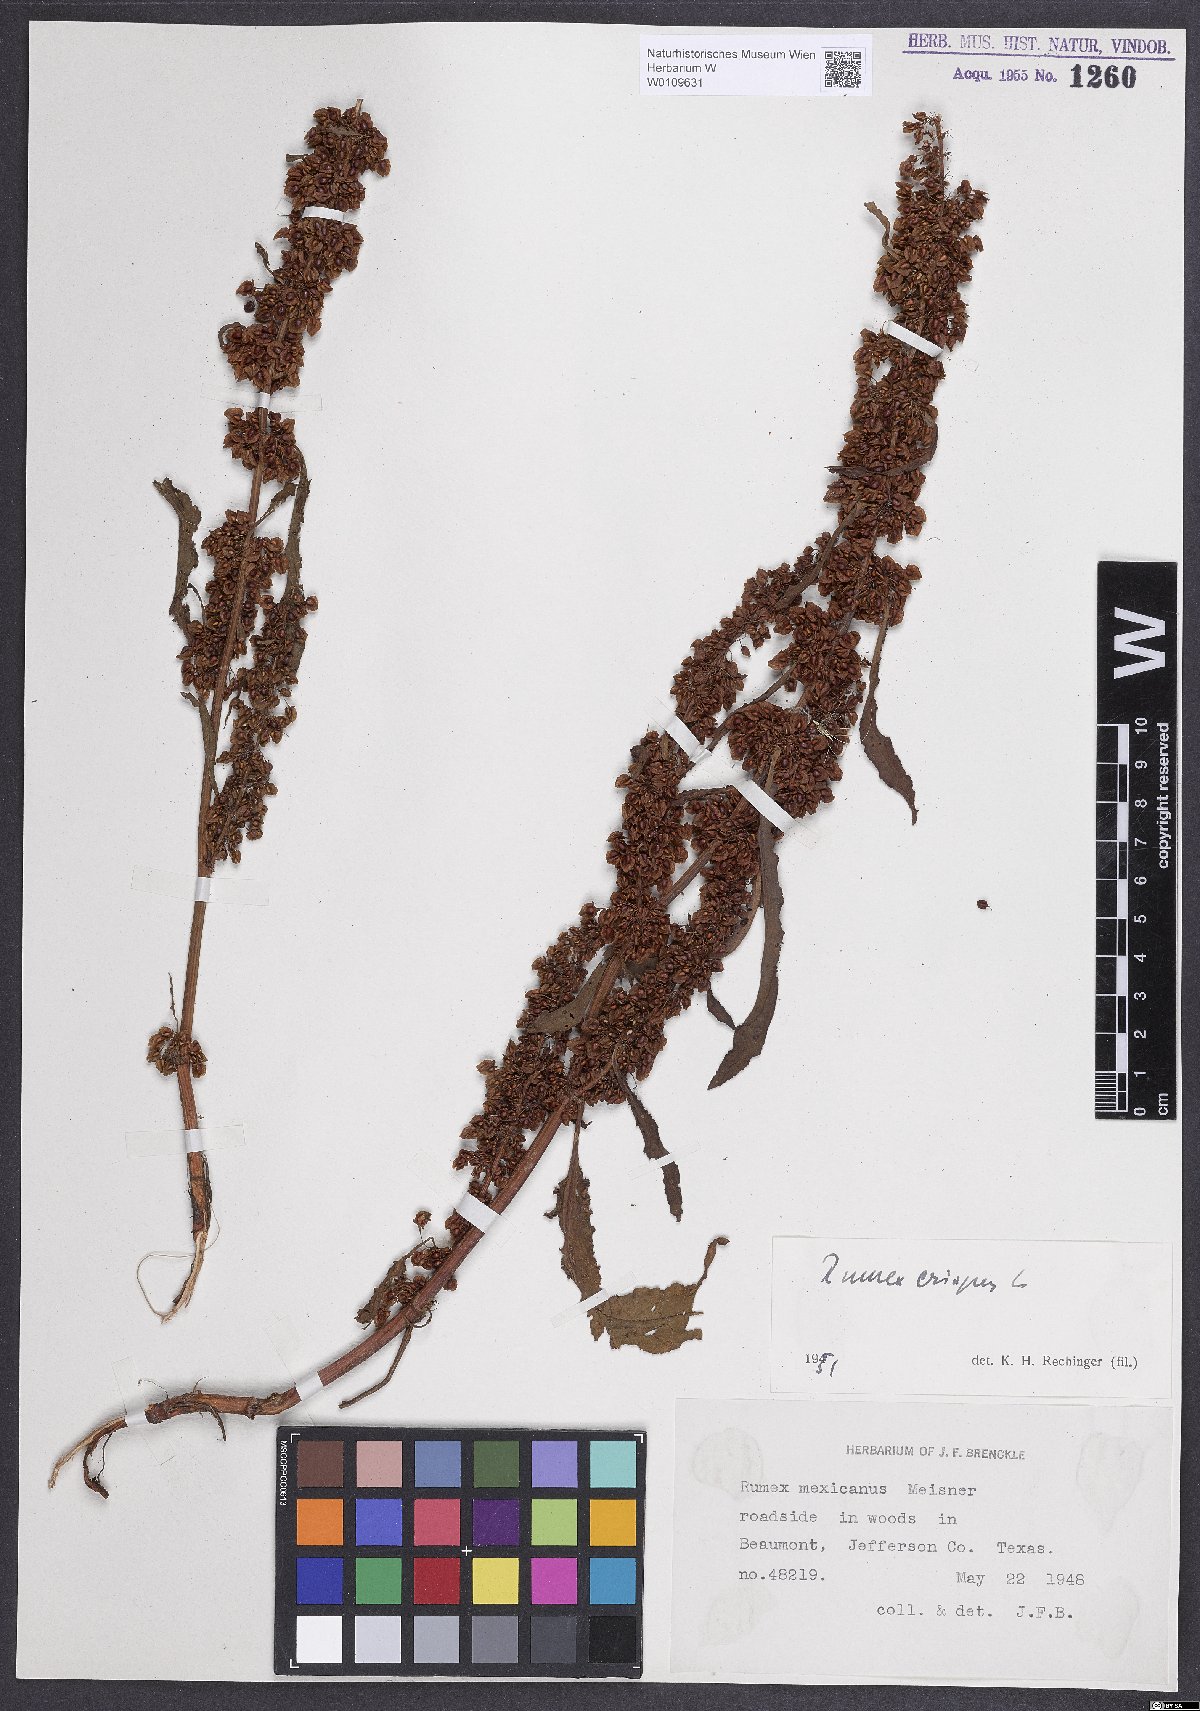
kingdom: Plantae
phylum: Tracheophyta
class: Magnoliopsida
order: Caryophyllales
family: Polygonaceae
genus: Rumex
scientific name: Rumex crispus
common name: Curled dock
